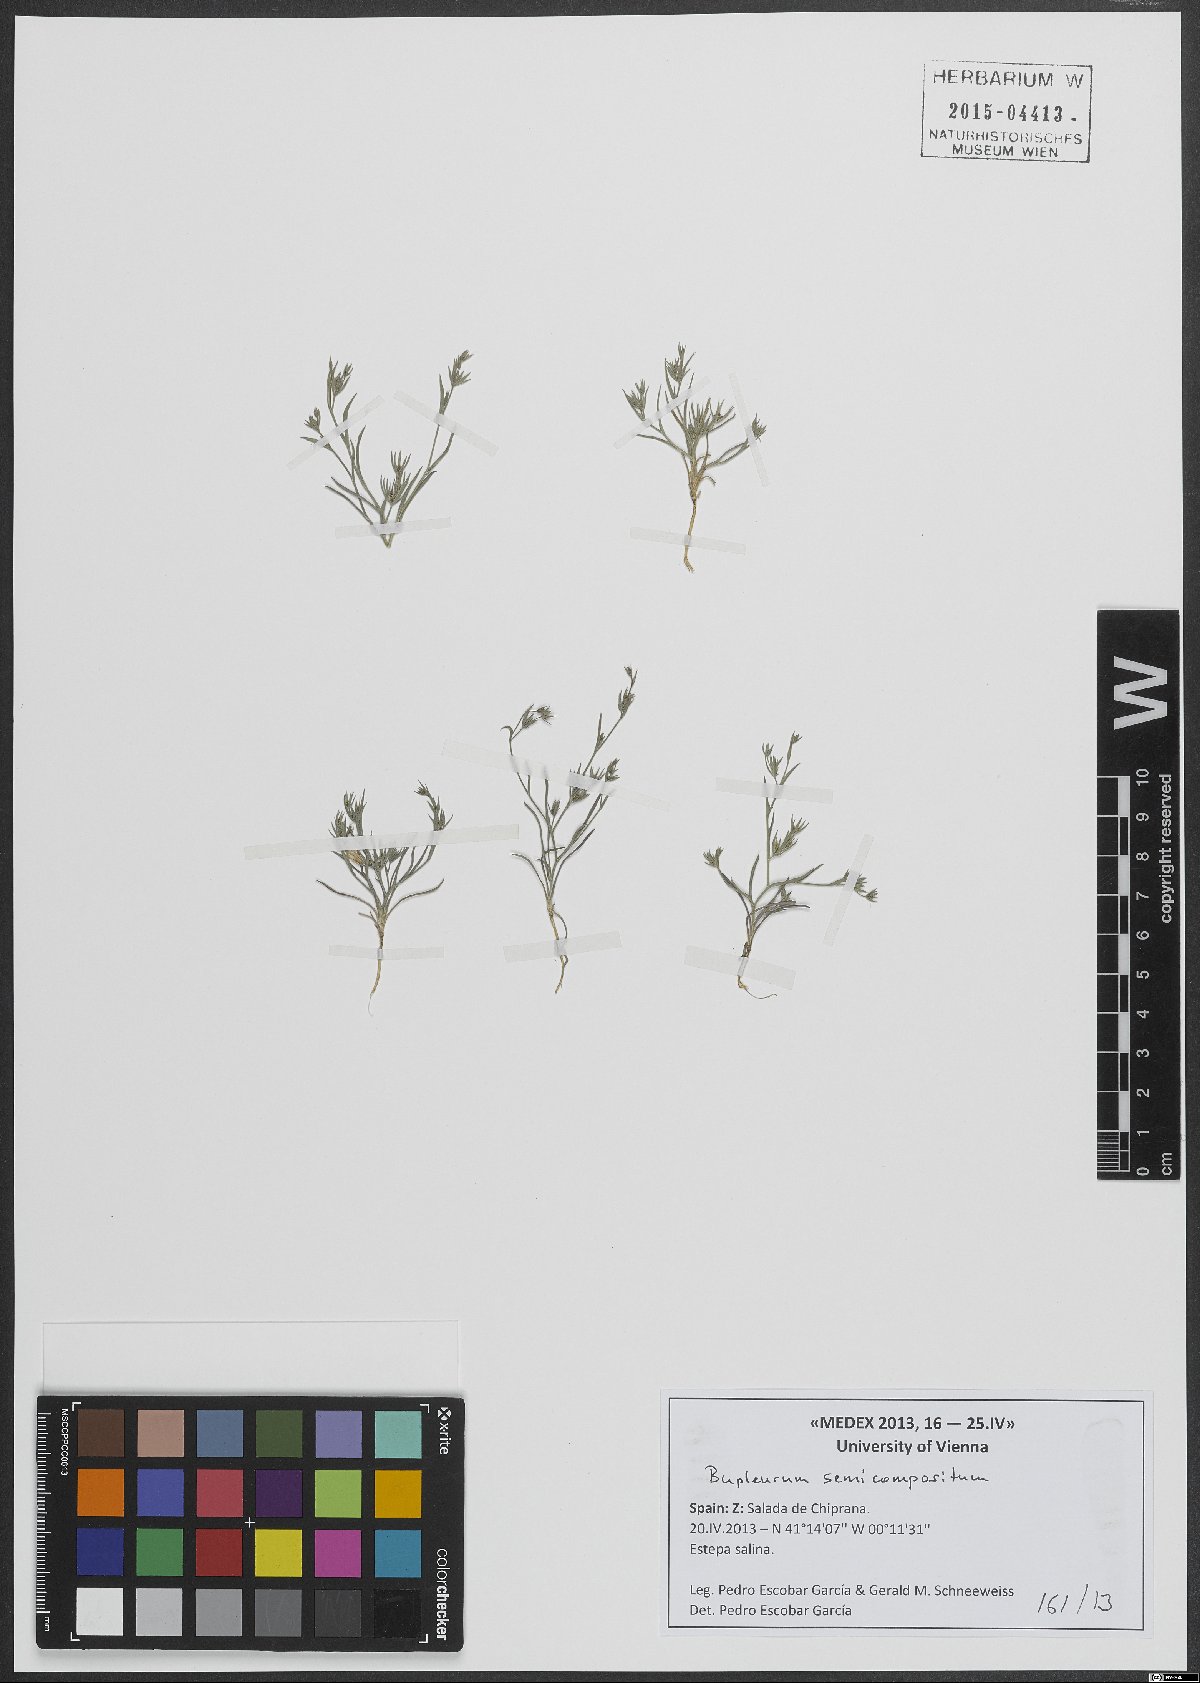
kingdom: Plantae
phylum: Tracheophyta
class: Magnoliopsida
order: Apiales
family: Apiaceae
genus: Bupleurum
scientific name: Bupleurum semicompositum
